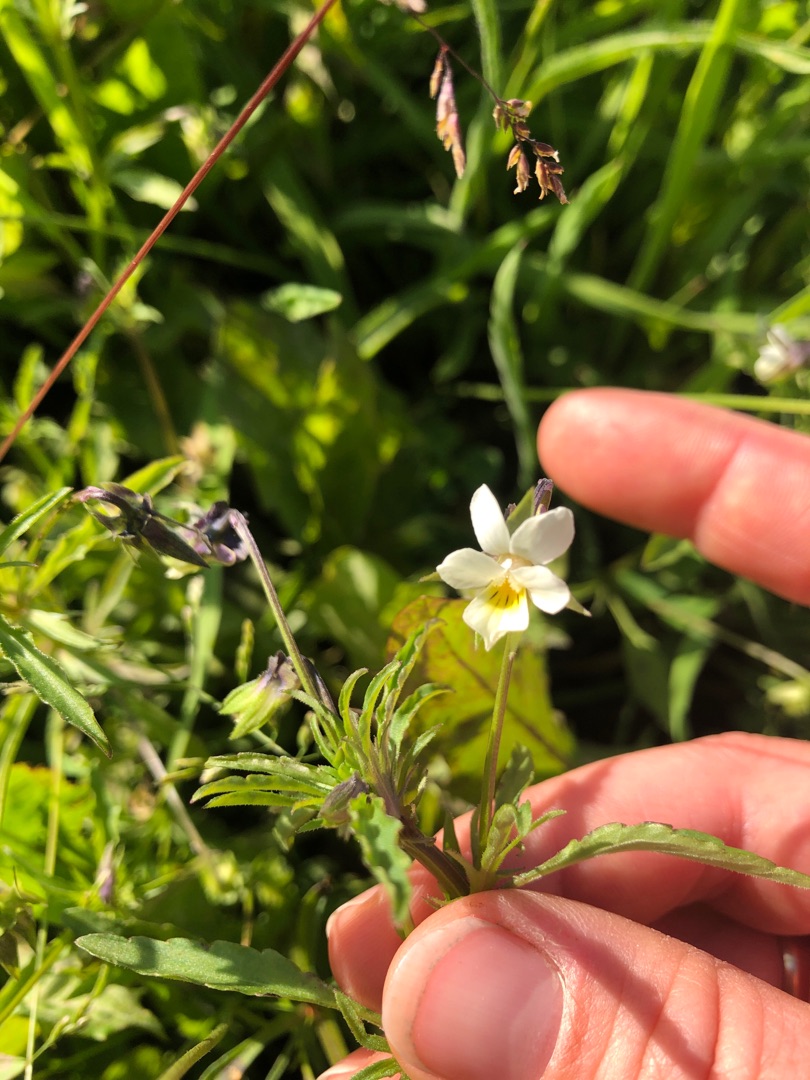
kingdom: Plantae
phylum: Tracheophyta
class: Magnoliopsida
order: Malpighiales
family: Violaceae
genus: Viola
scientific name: Viola arvensis
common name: Ager-stedmoderblomst
